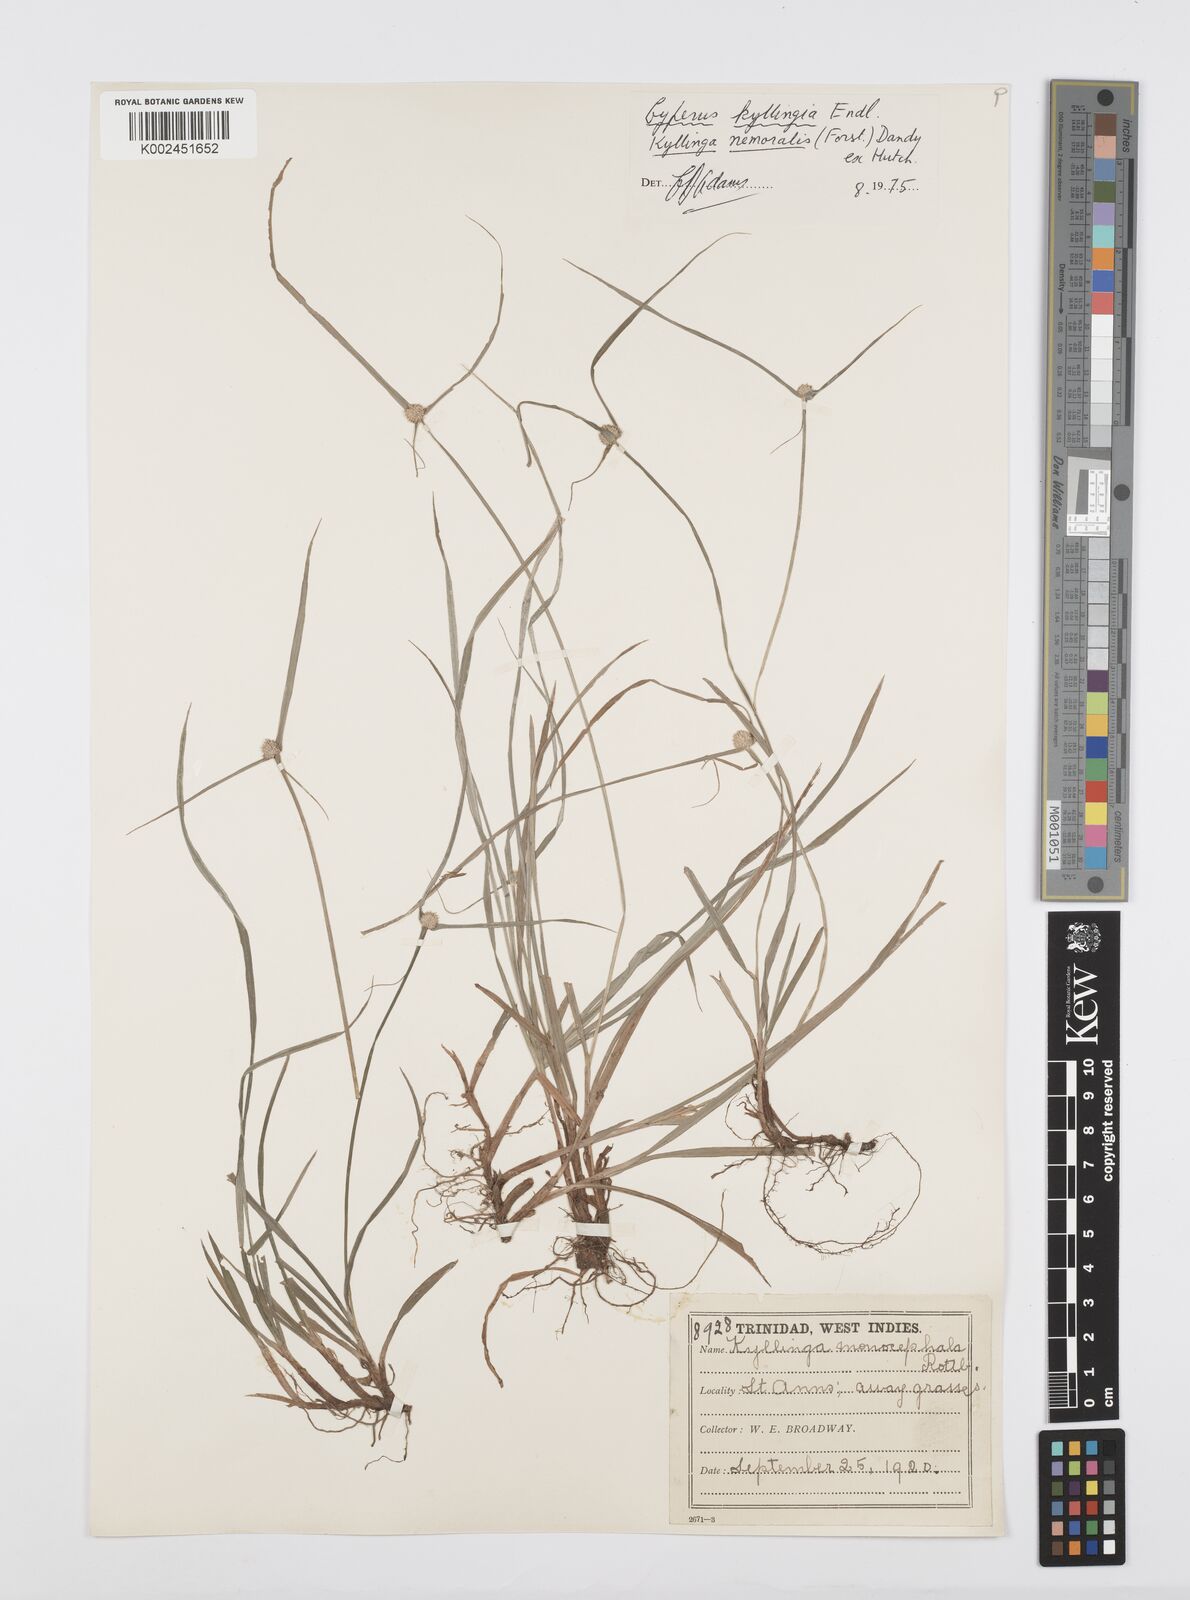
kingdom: Plantae
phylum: Tracheophyta
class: Liliopsida
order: Poales
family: Cyperaceae
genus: Cyperus
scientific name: Cyperus
